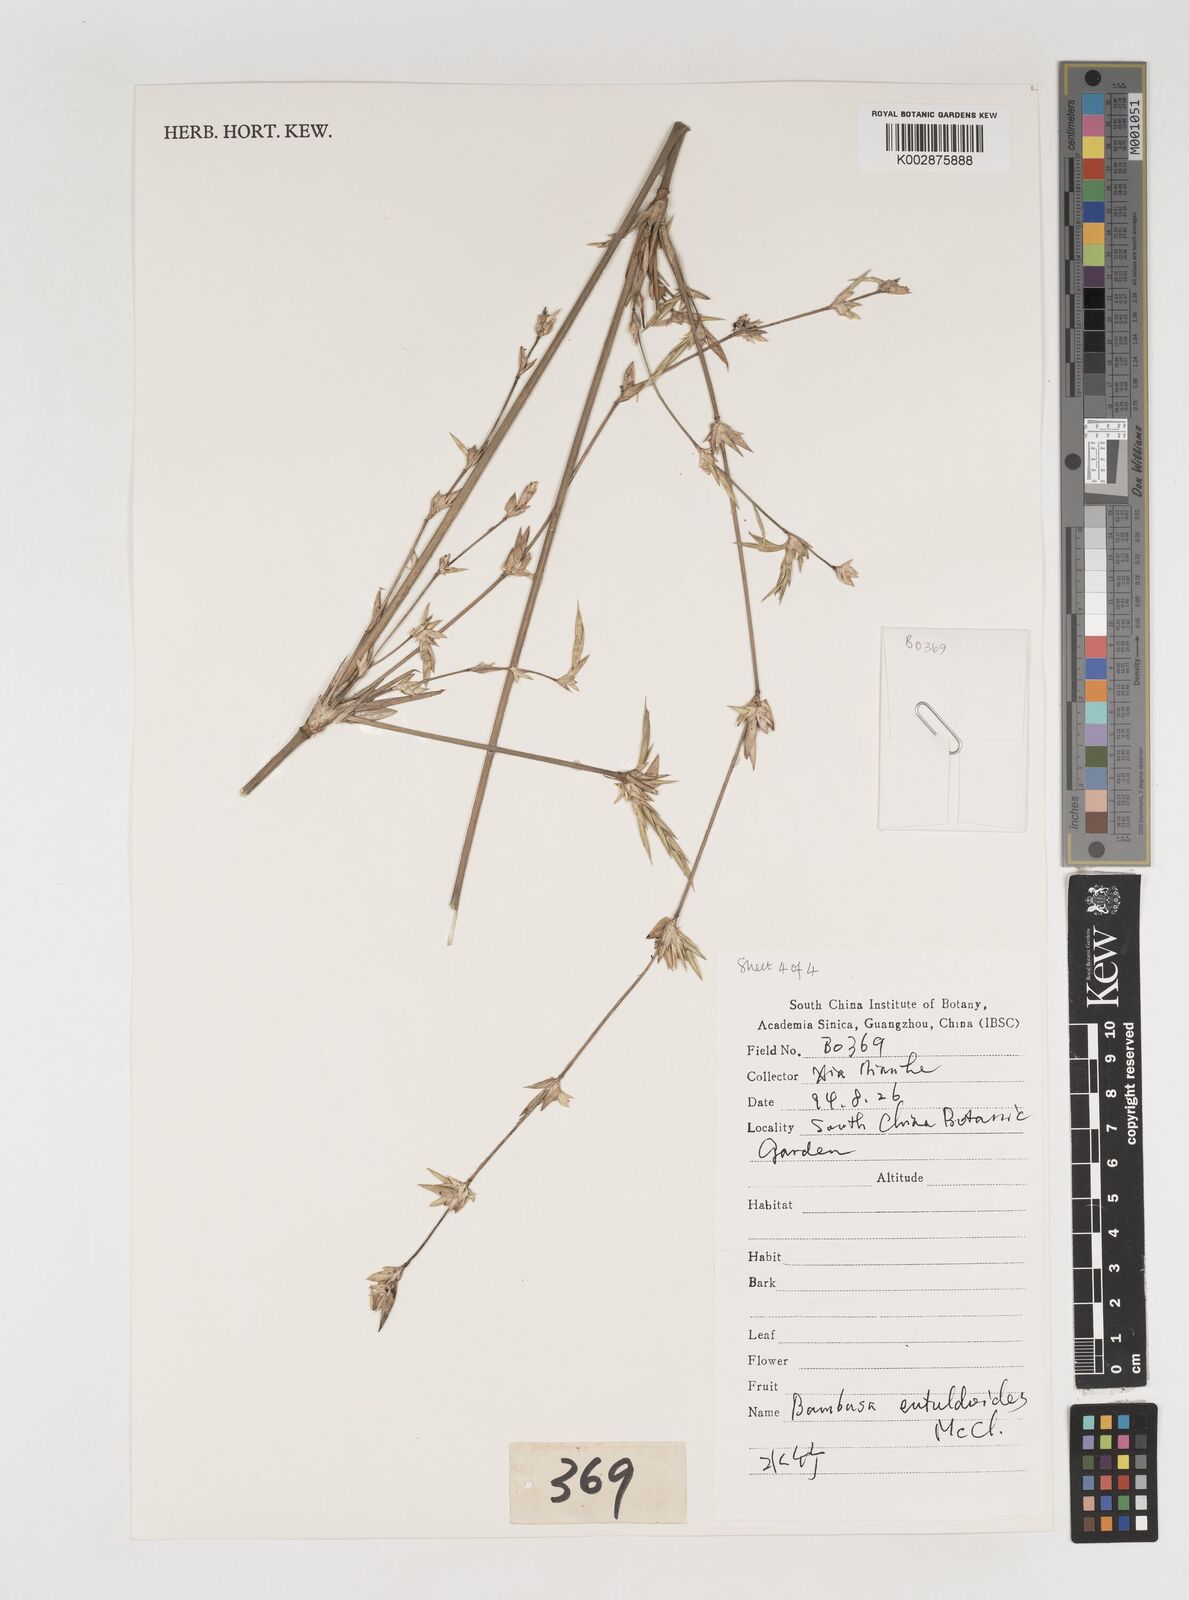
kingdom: Plantae
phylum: Tracheophyta
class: Liliopsida
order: Poales
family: Poaceae
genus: Bambusa
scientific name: Bambusa eutuldoides
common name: Dai ngan bamboo
